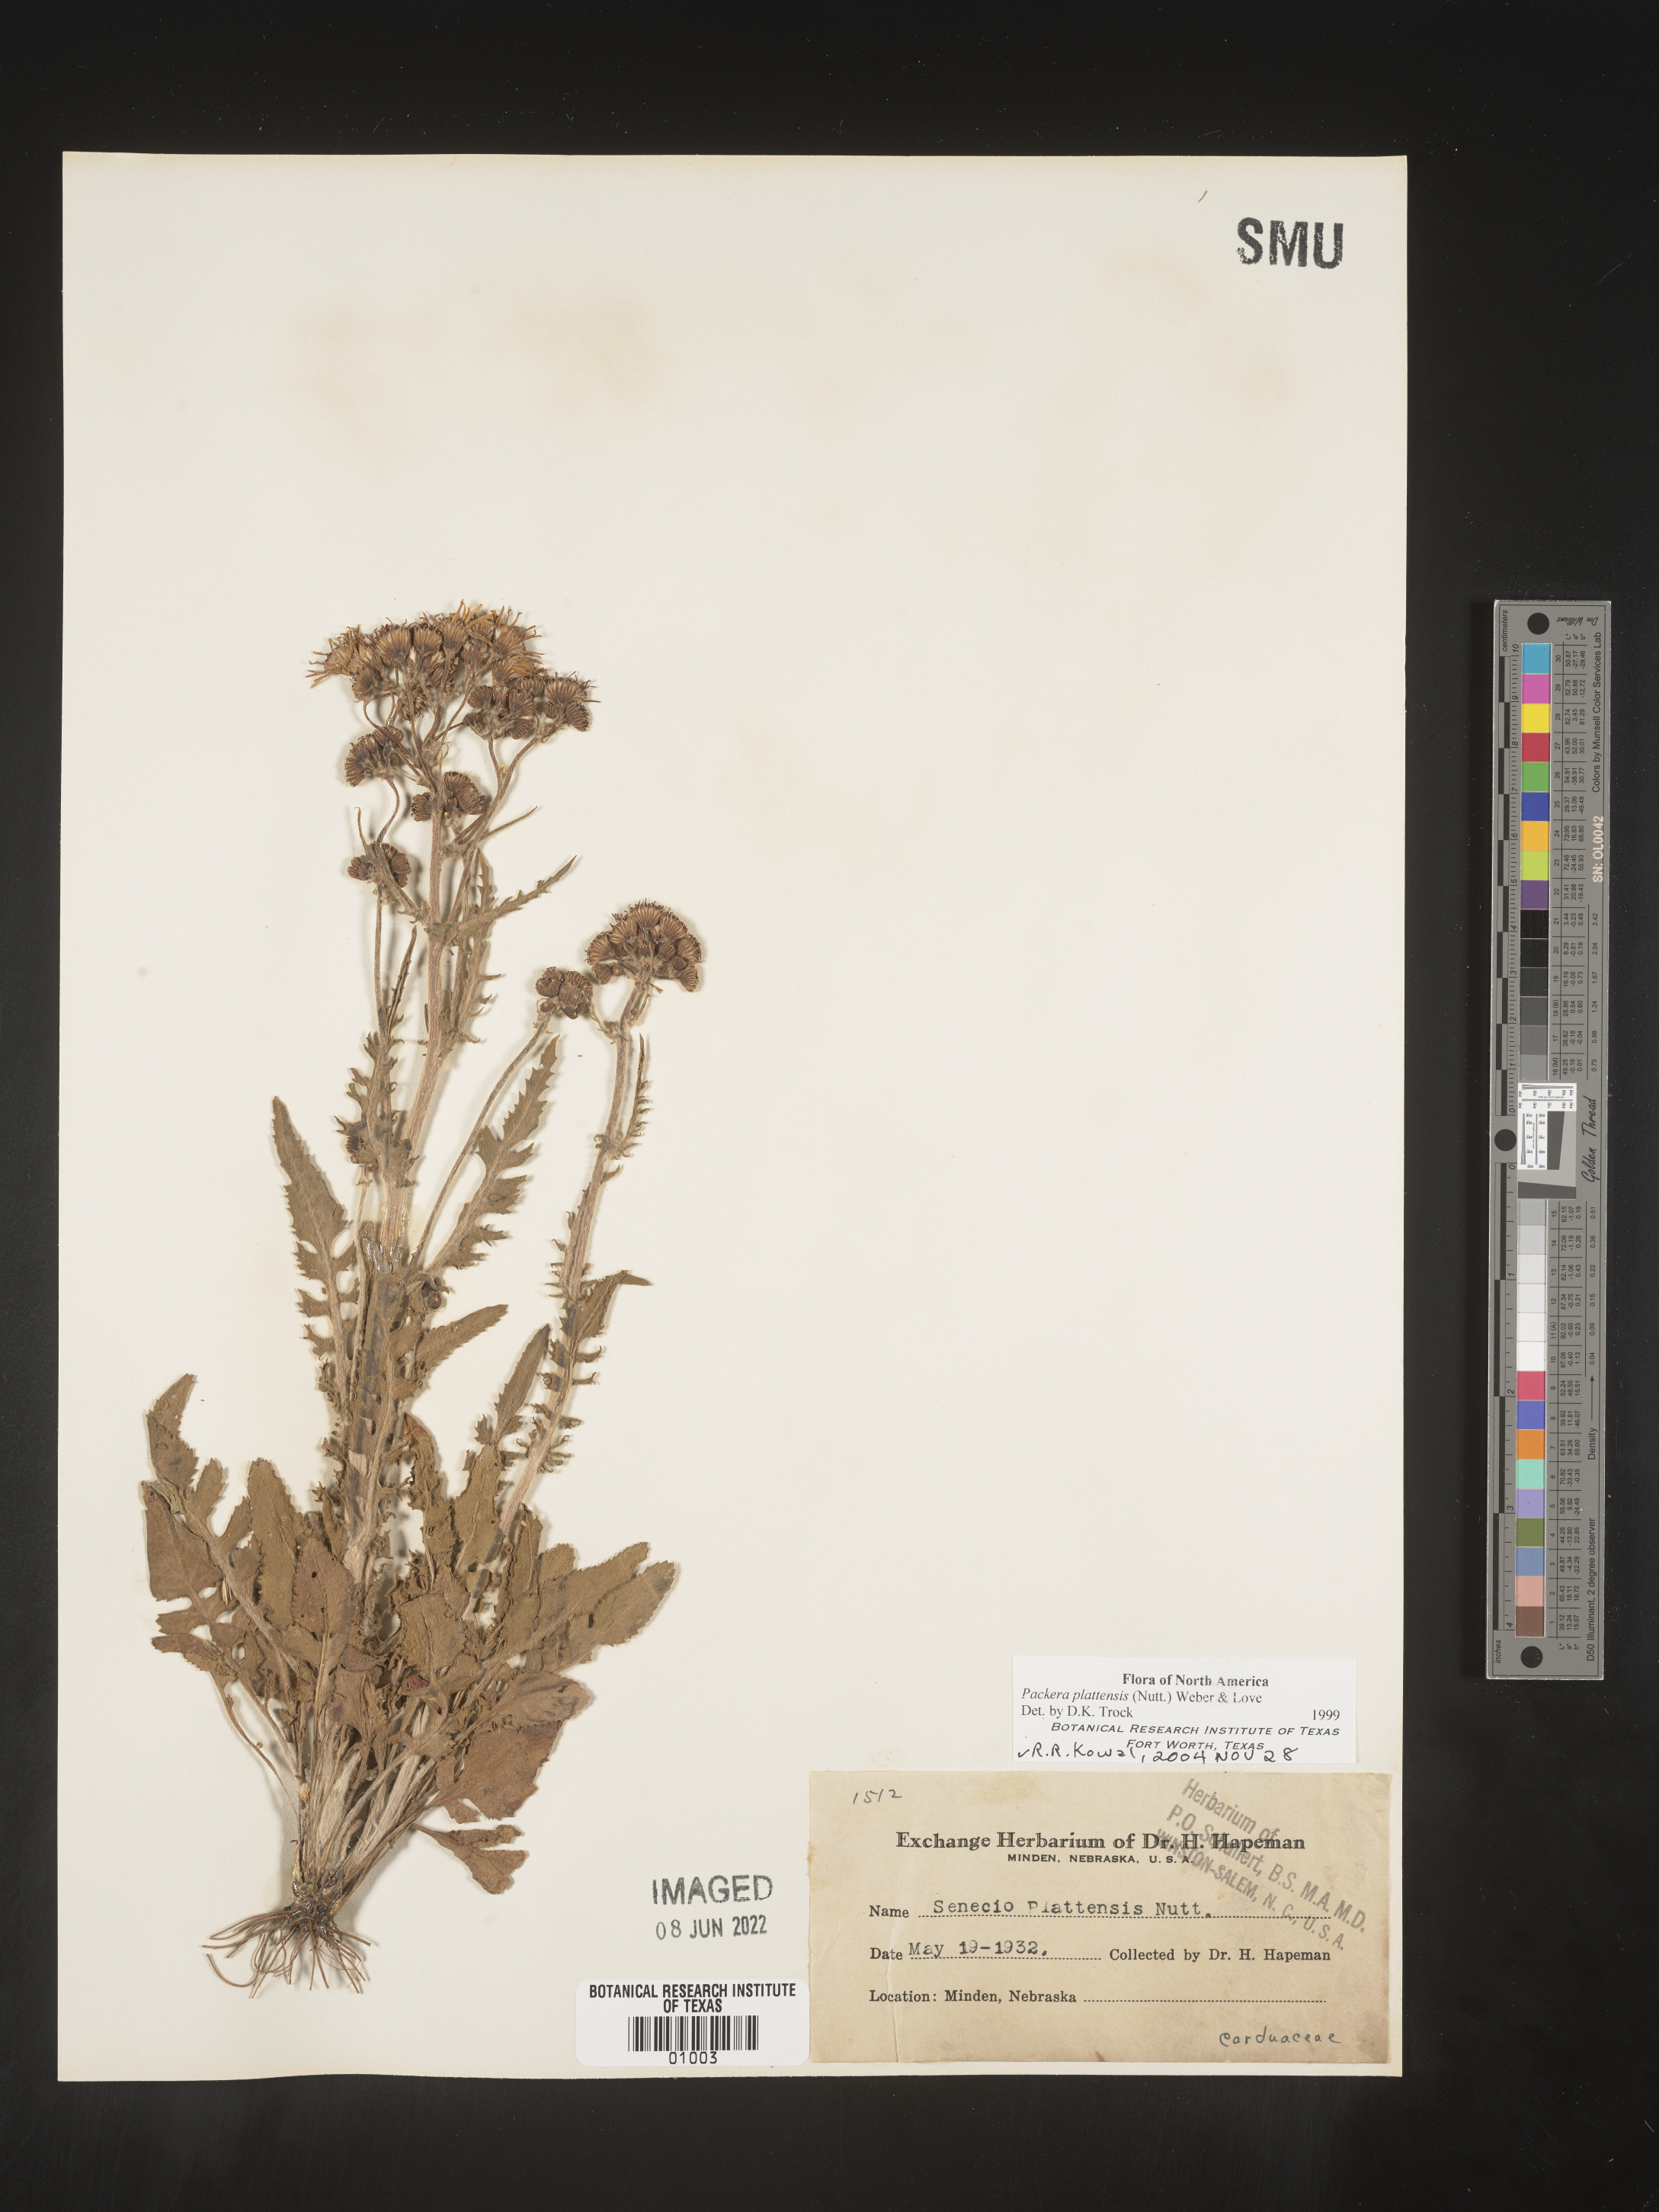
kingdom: Plantae
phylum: Tracheophyta
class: Magnoliopsida
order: Asterales
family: Asteraceae
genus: Packera
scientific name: Packera plattensis
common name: Prairie groundsel
